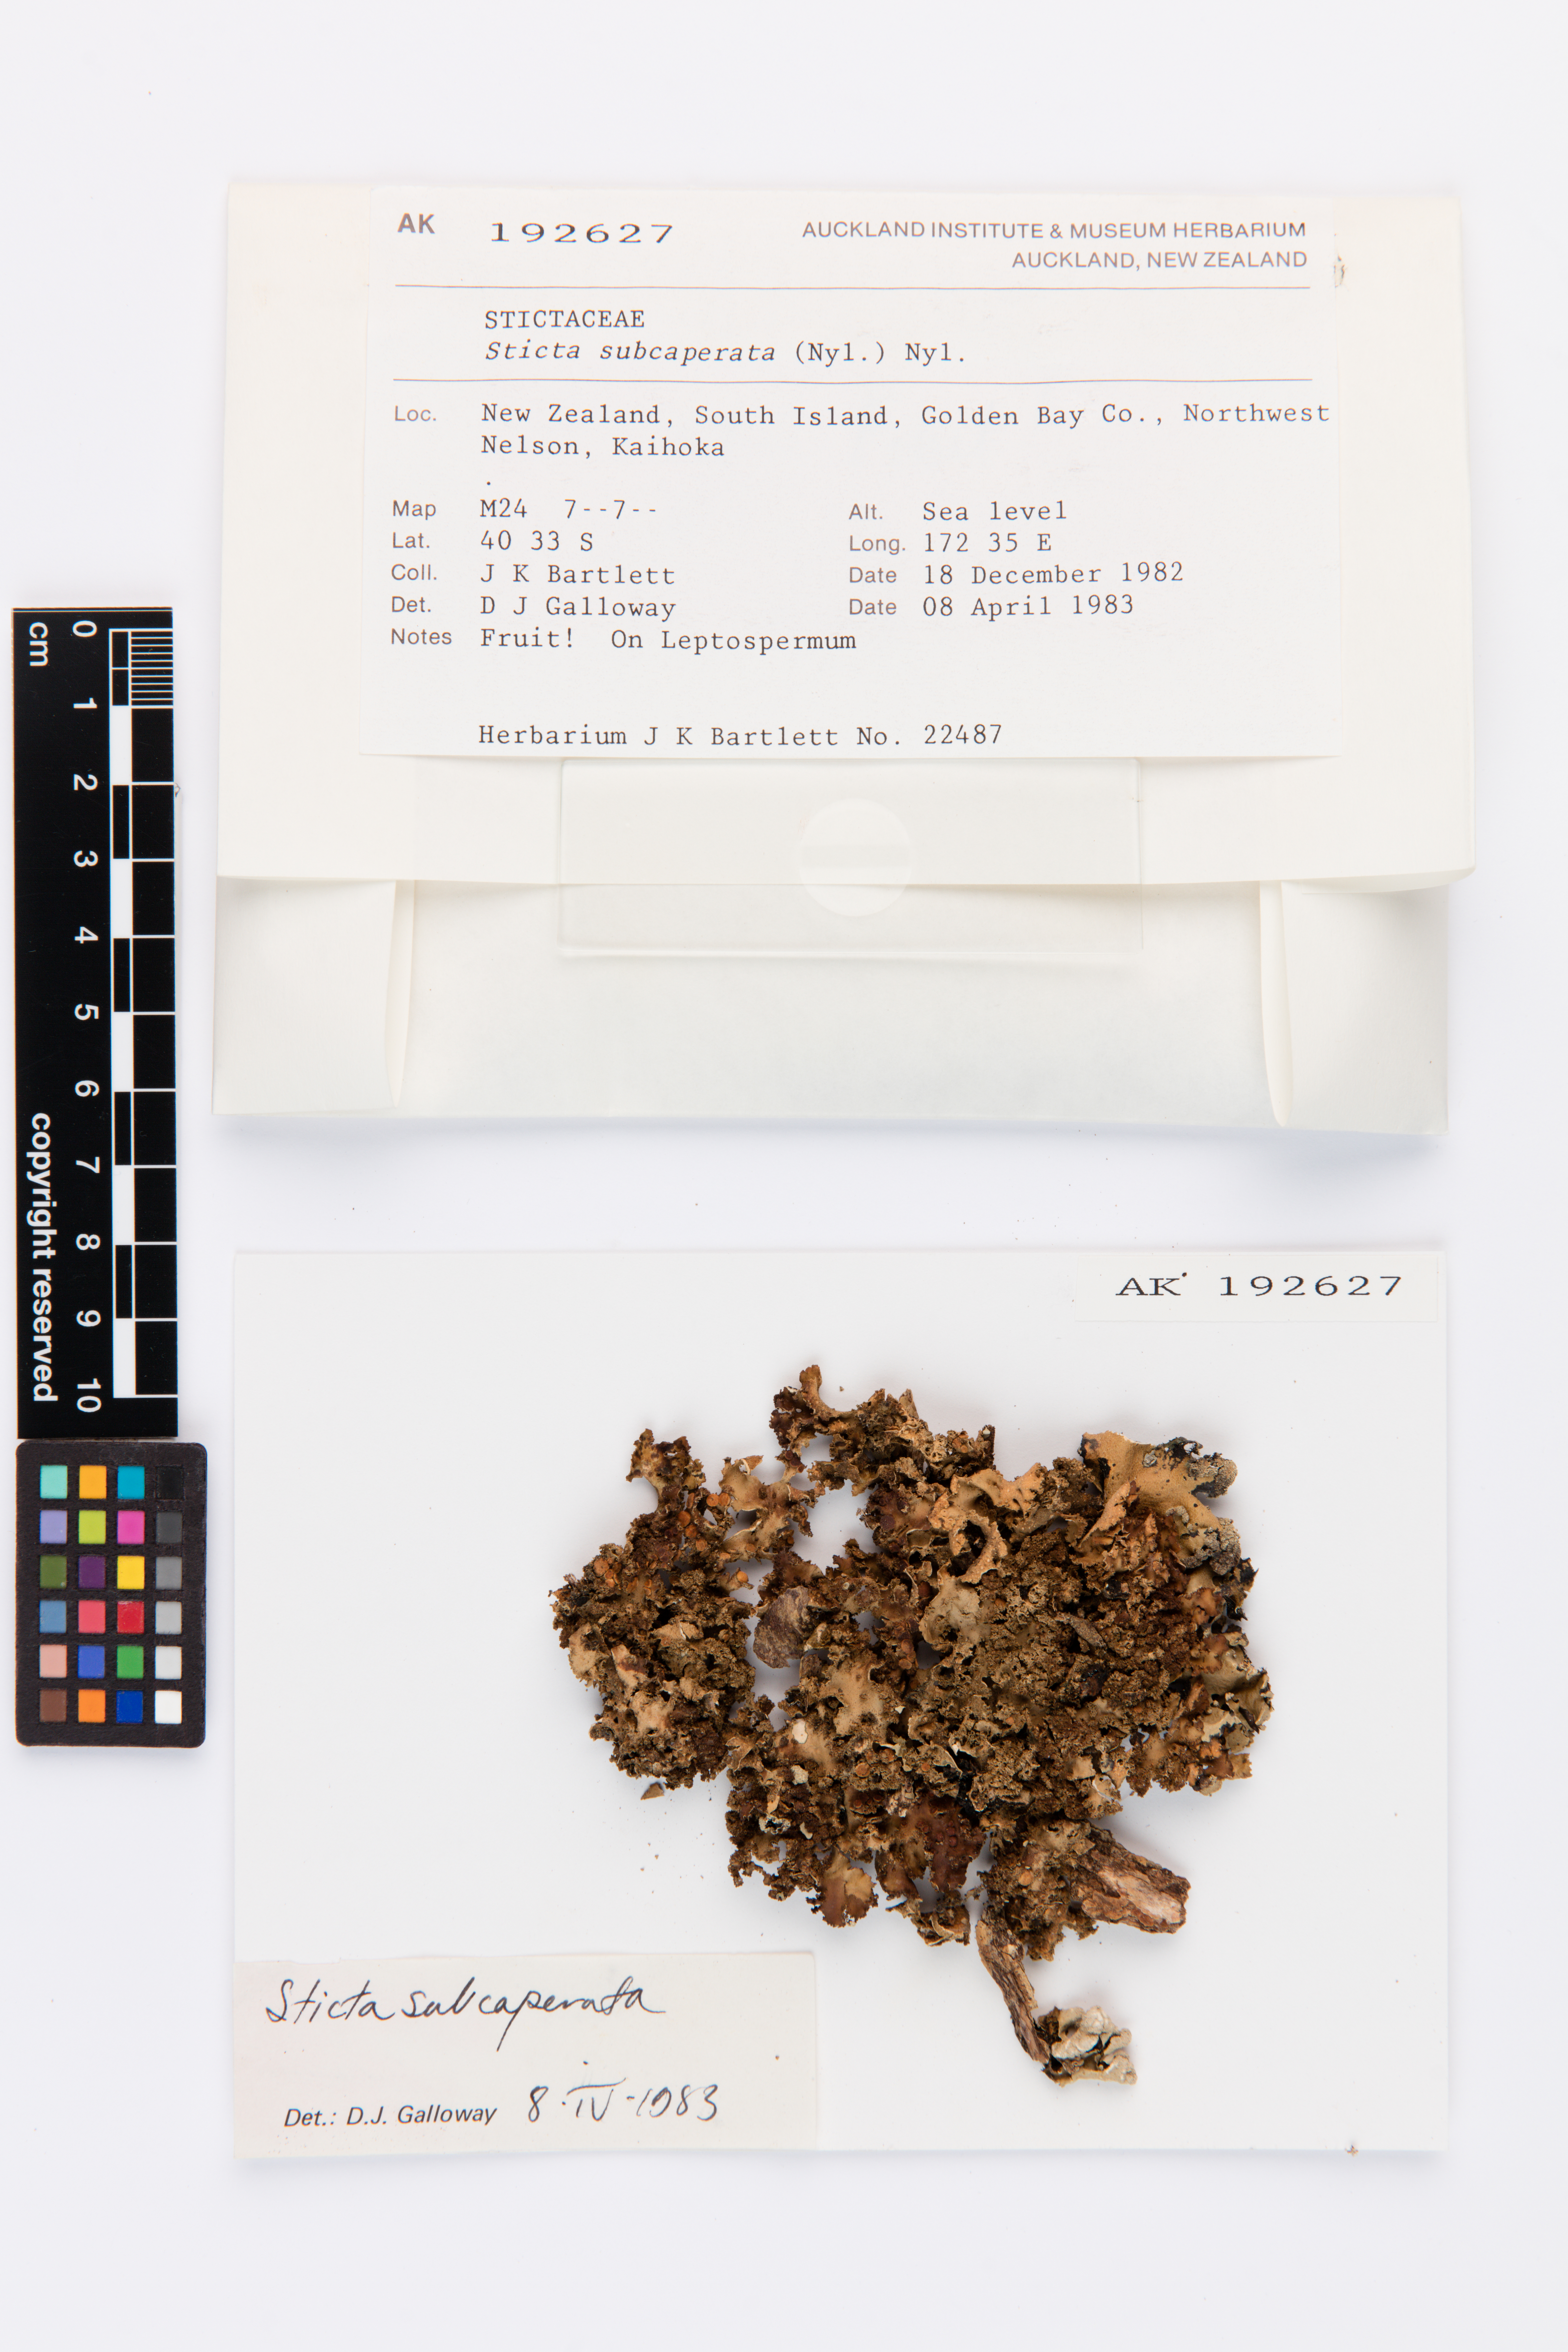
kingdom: Fungi
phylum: Ascomycota
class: Lecanoromycetes
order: Peltigerales
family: Lobariaceae
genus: Sticta
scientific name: Sticta subcaperata
